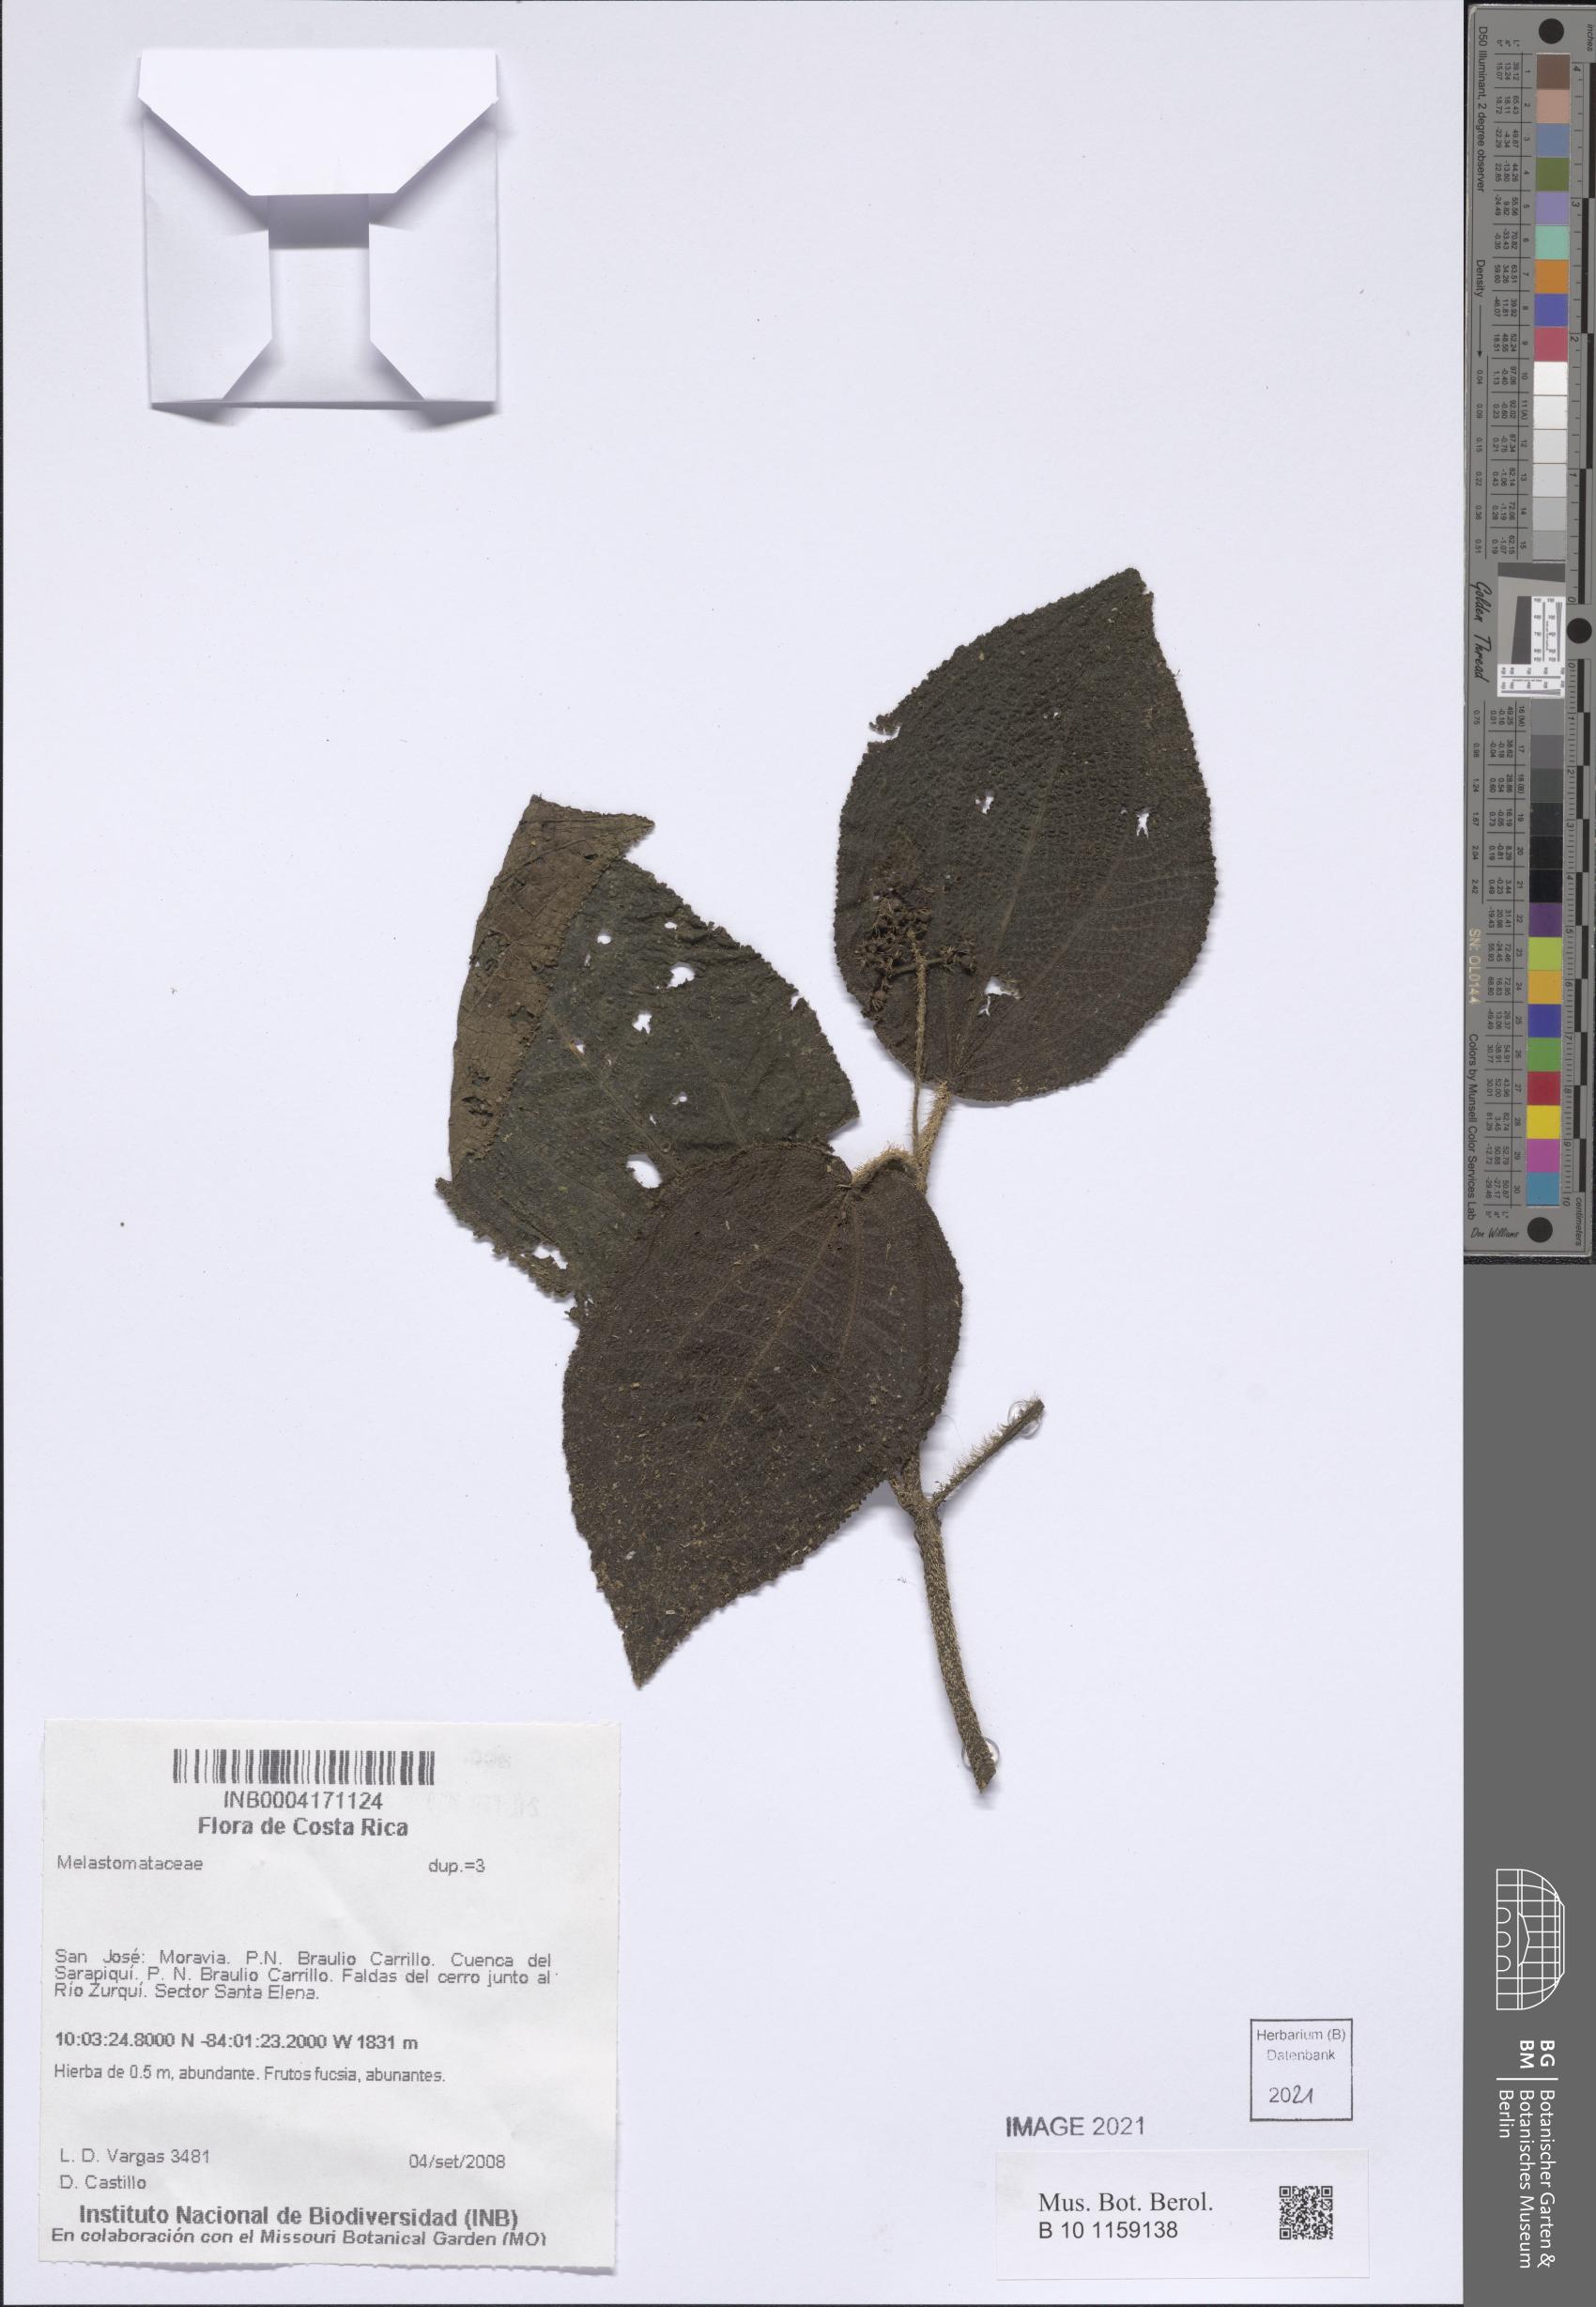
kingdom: Plantae
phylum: Tracheophyta
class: Magnoliopsida
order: Myrtales
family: Melastomataceae
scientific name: Melastomataceae
